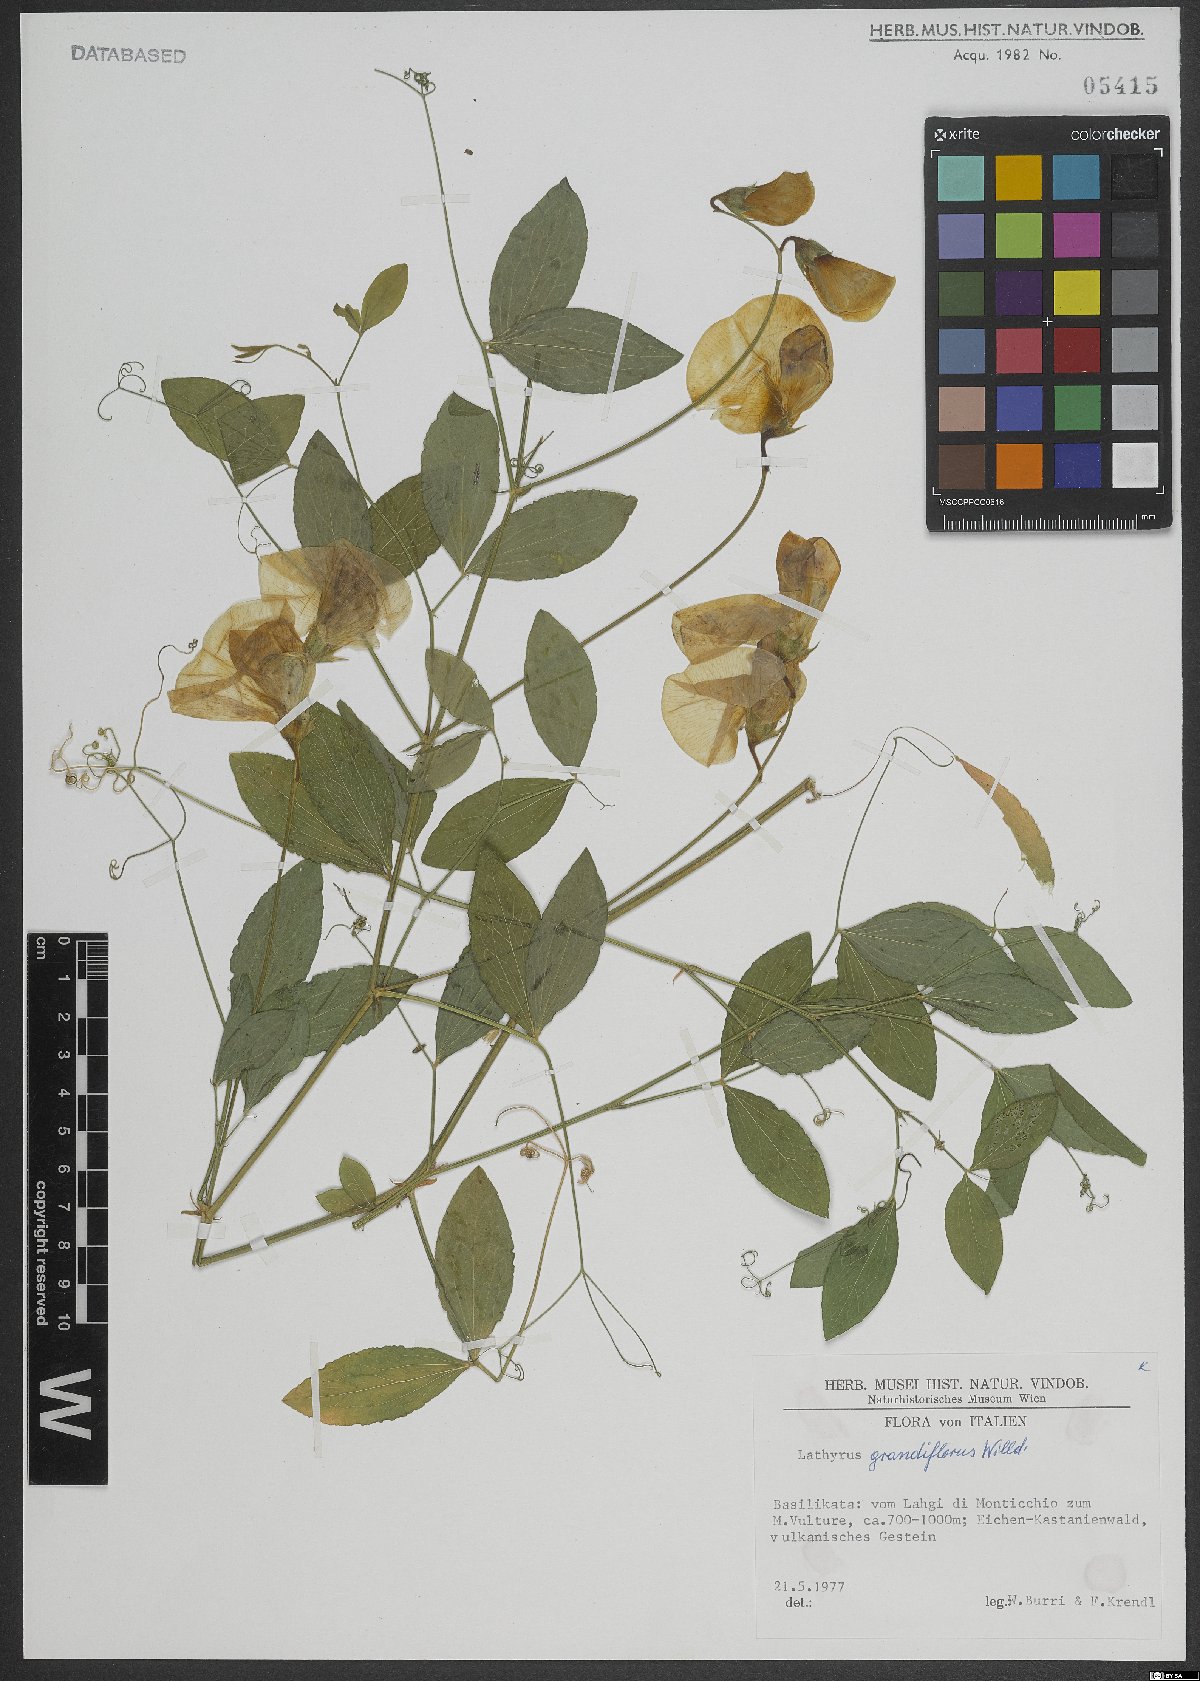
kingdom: Plantae
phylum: Tracheophyta
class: Magnoliopsida
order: Fabales
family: Fabaceae
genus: Lathyrus
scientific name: Lathyrus grandiflorus
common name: Two-flowered everlasting-pea
